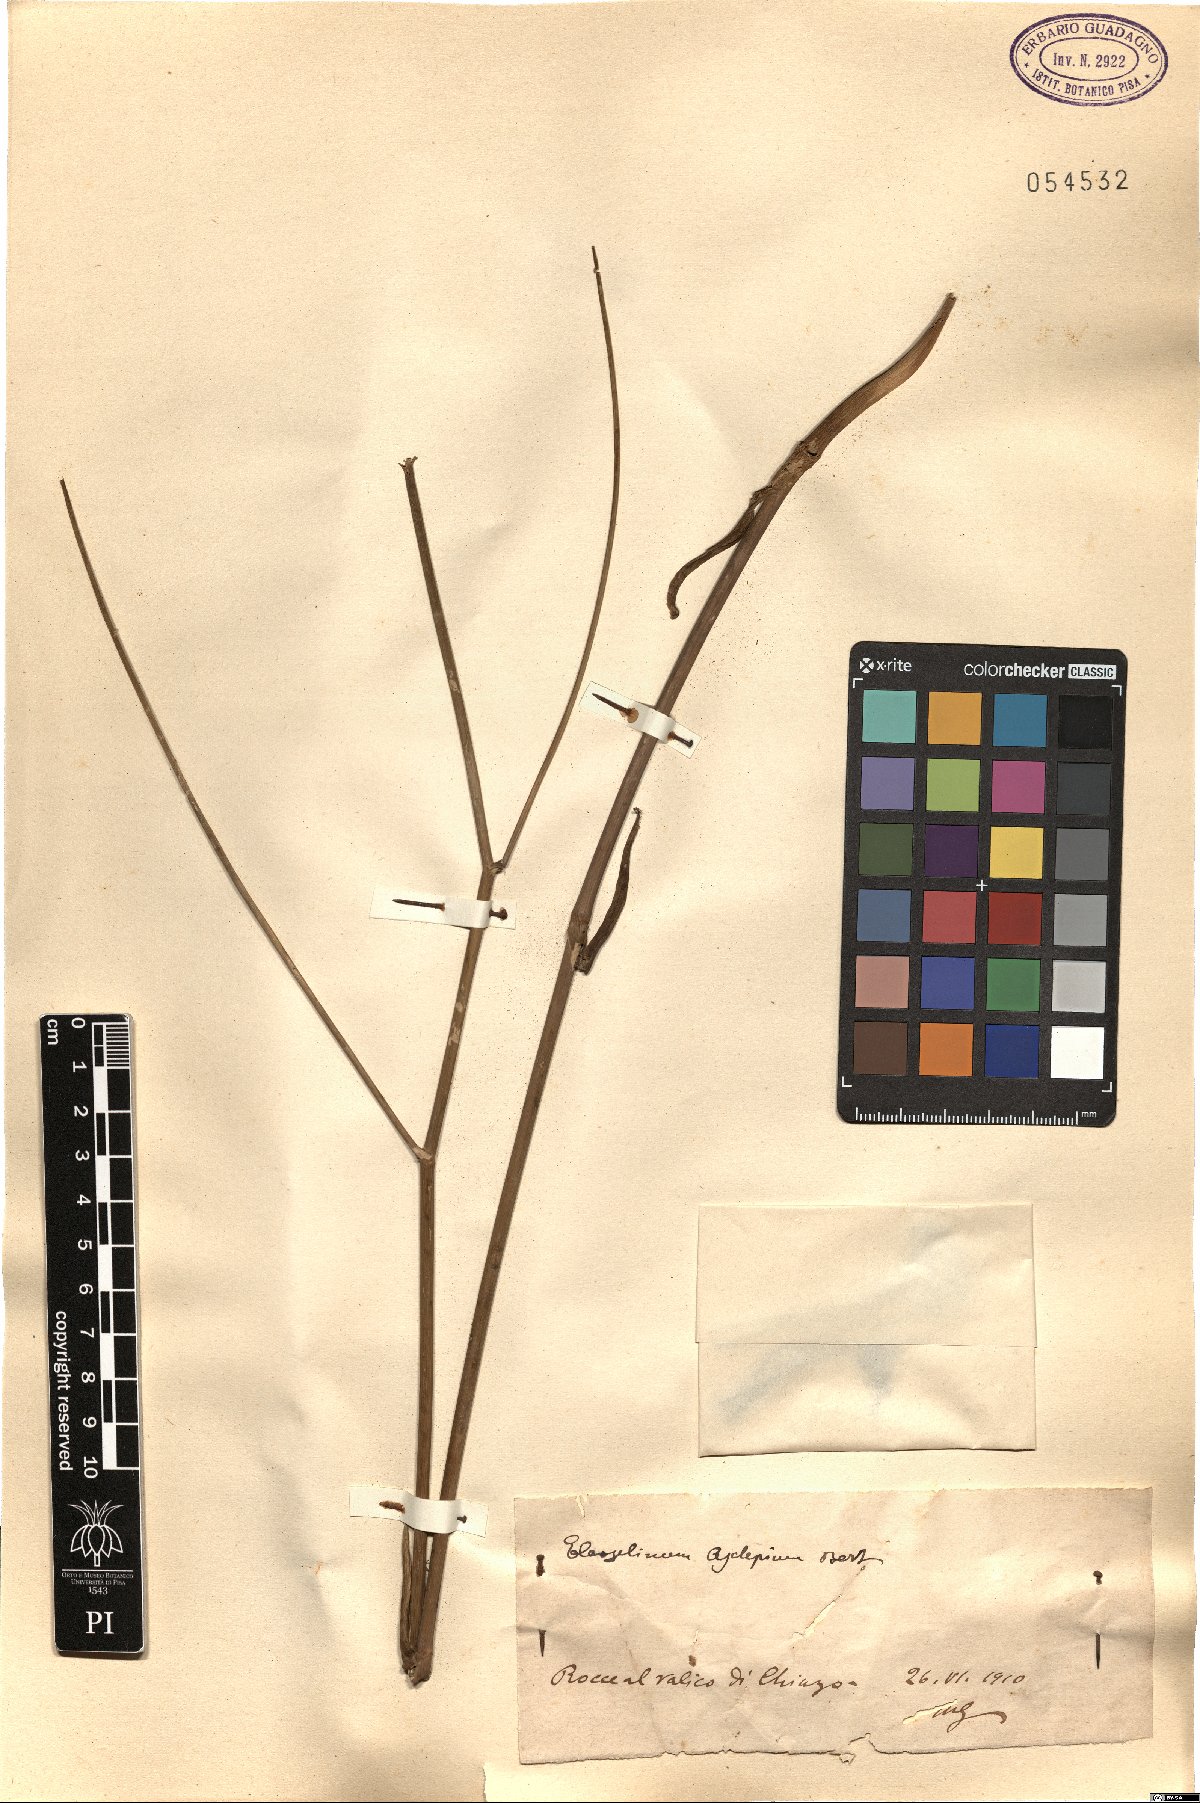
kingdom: Plantae
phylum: Tracheophyta
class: Magnoliopsida
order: Apiales
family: Apiaceae
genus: Thapsia
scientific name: Thapsia asclepium
